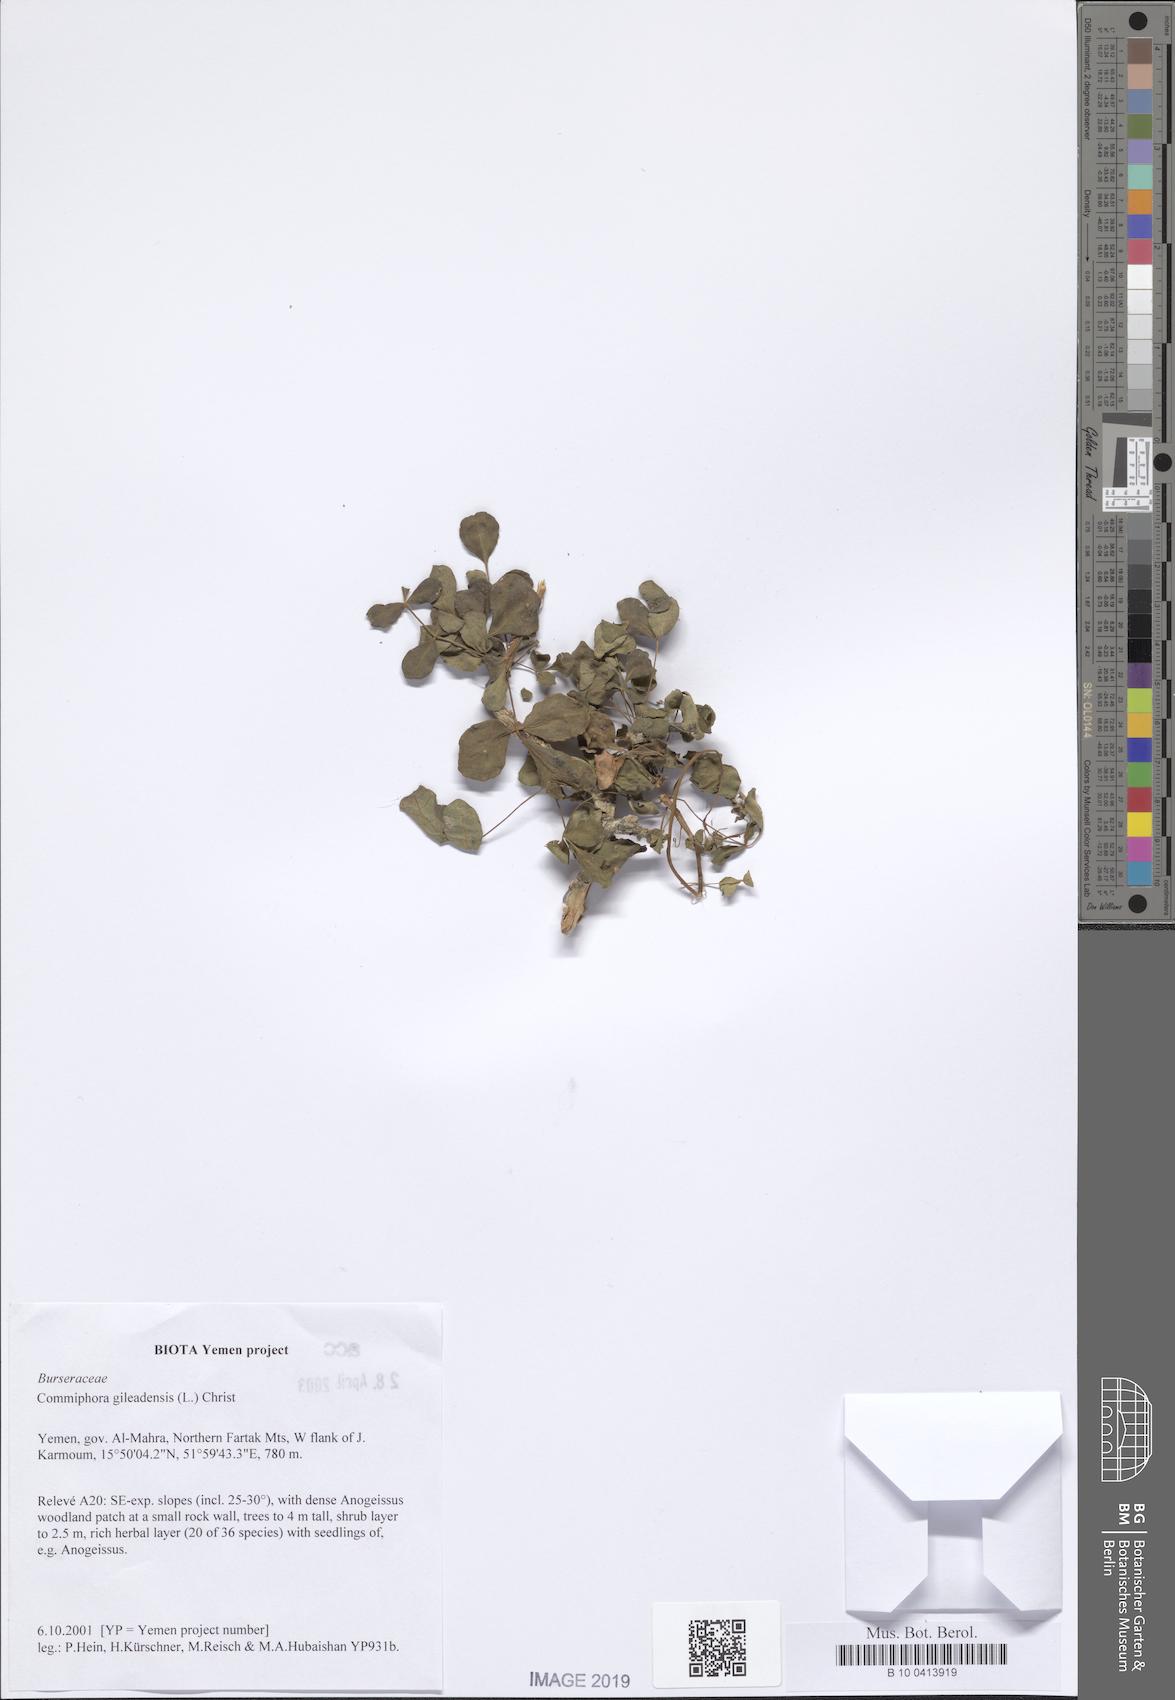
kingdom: Plantae
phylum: Tracheophyta
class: Magnoliopsida
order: Sapindales
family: Burseraceae
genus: Commiphora
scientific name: Commiphora gileadensis
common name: Balm-of-gilead
